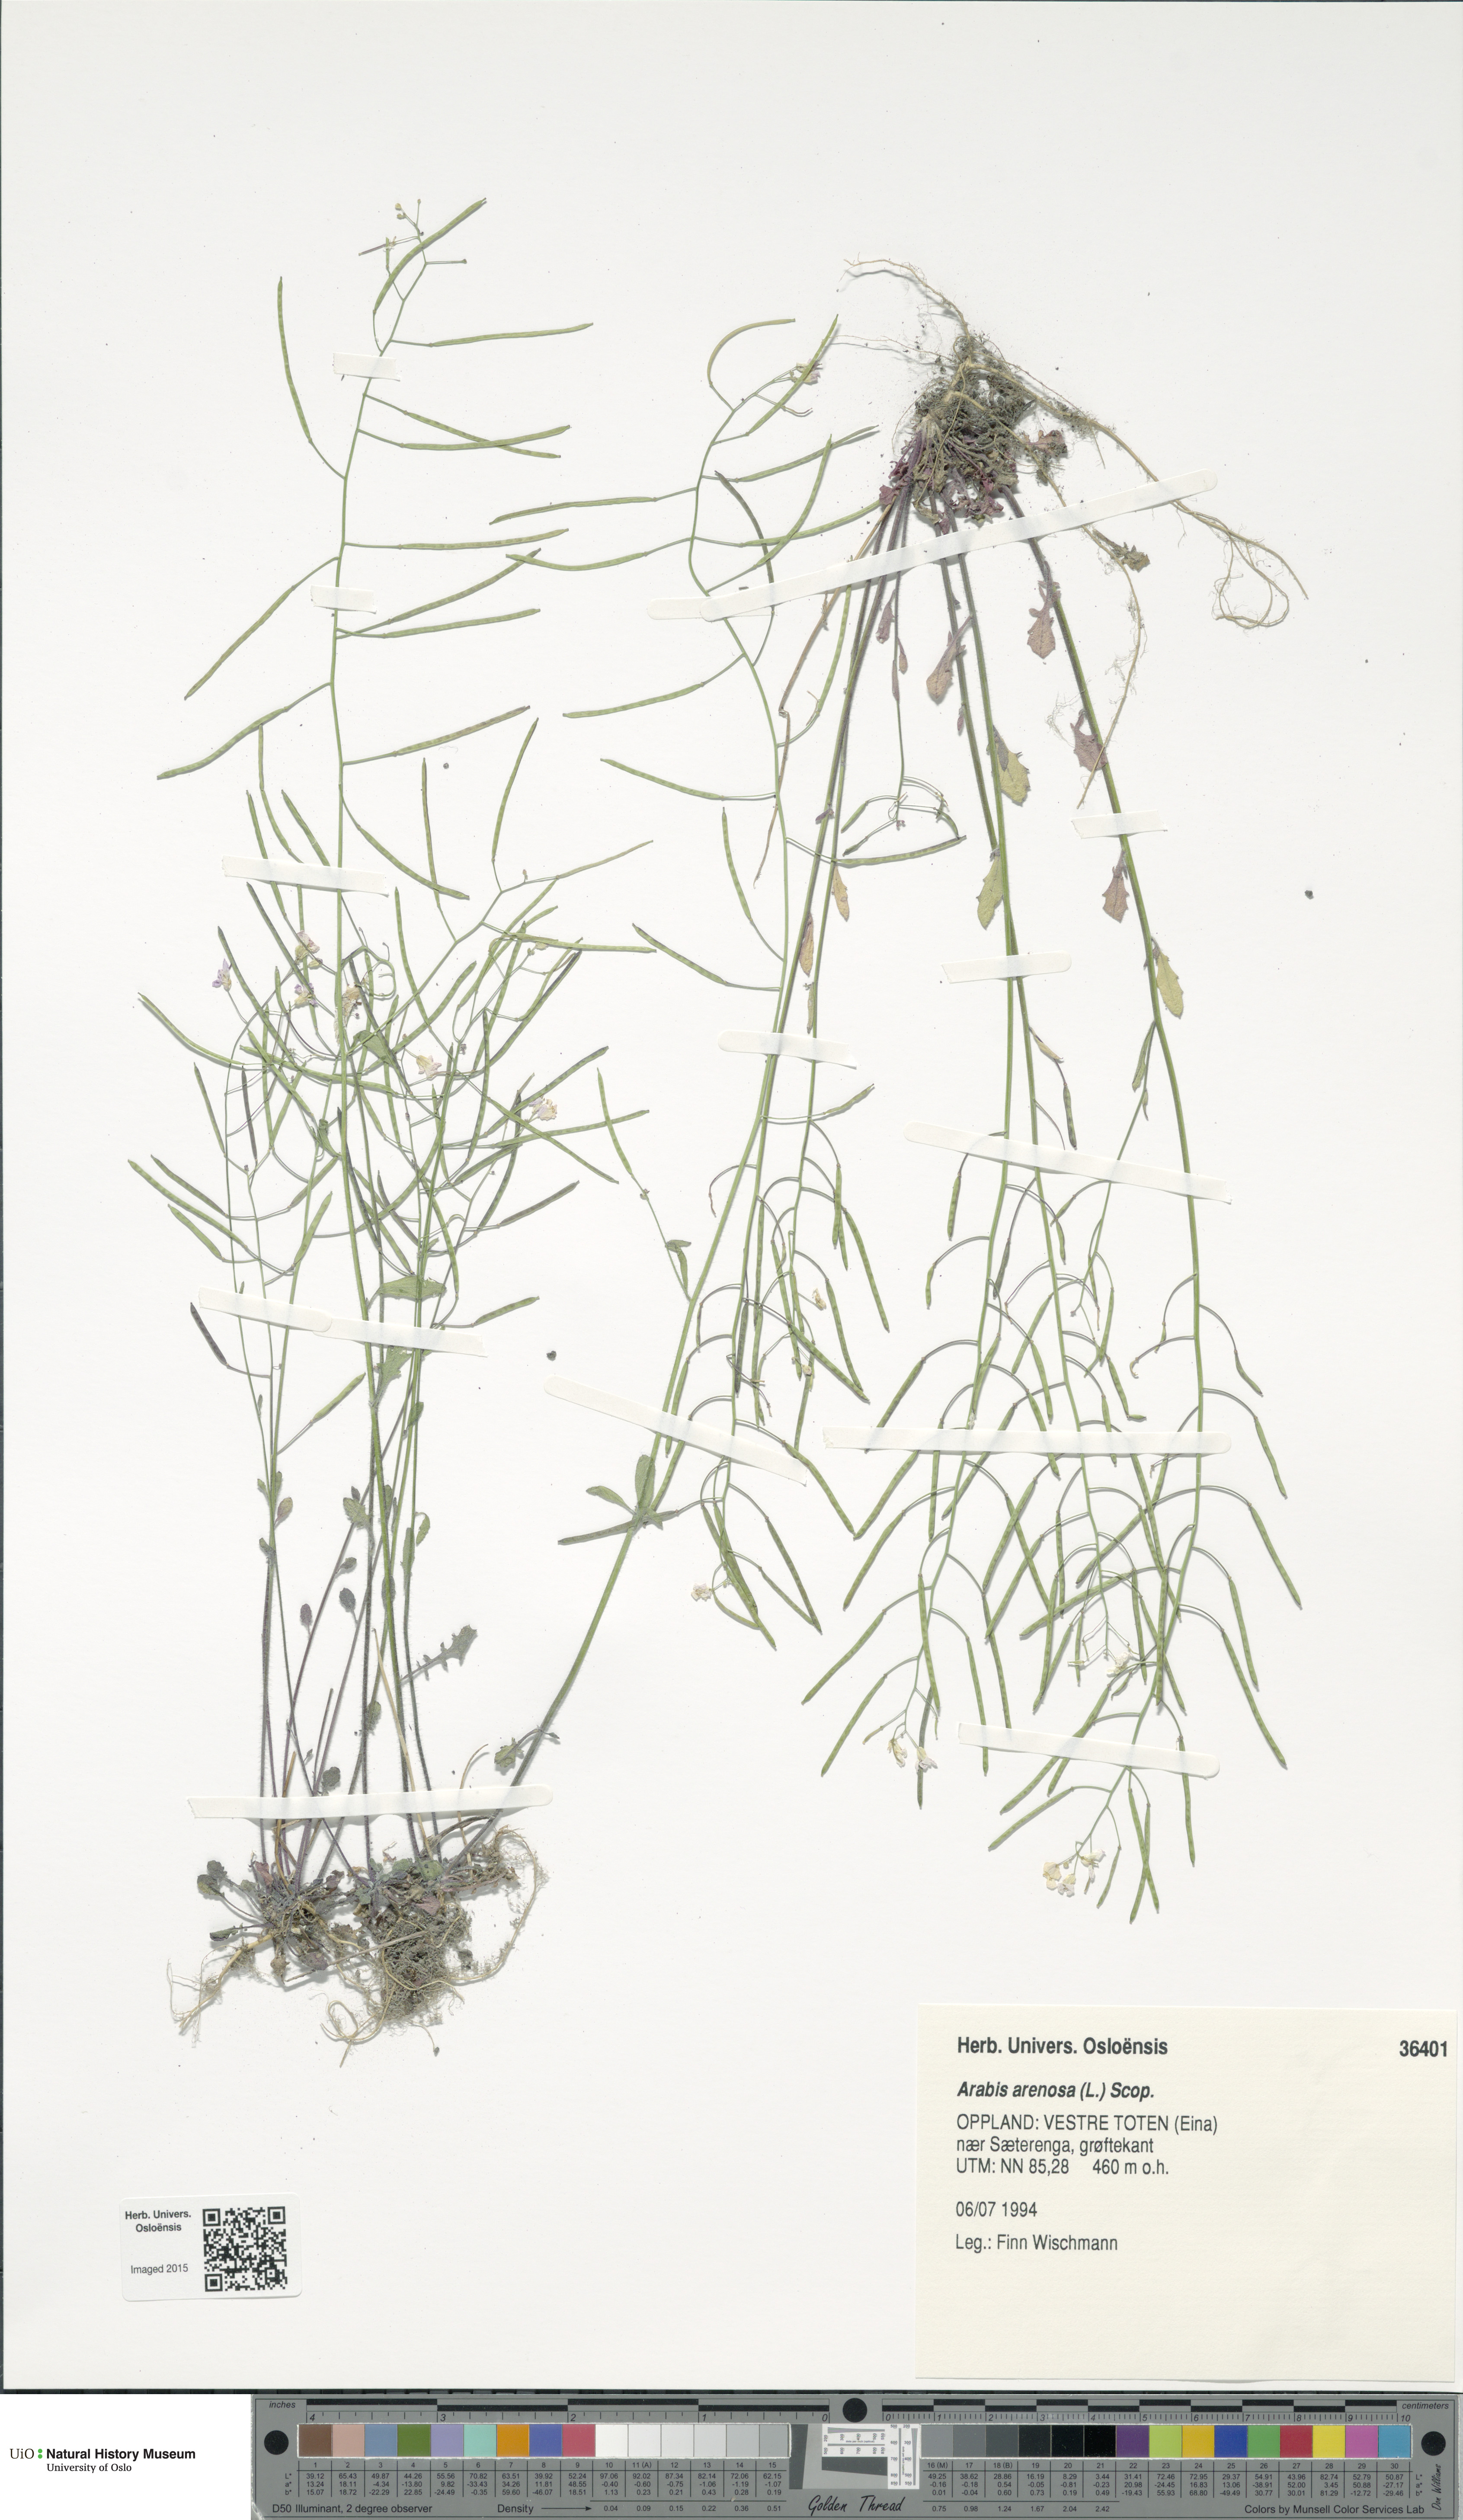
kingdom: Plantae
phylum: Tracheophyta
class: Magnoliopsida
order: Brassicales
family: Brassicaceae
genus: Arabidopsis
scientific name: Arabidopsis arenosa
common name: Sand rock-cress
